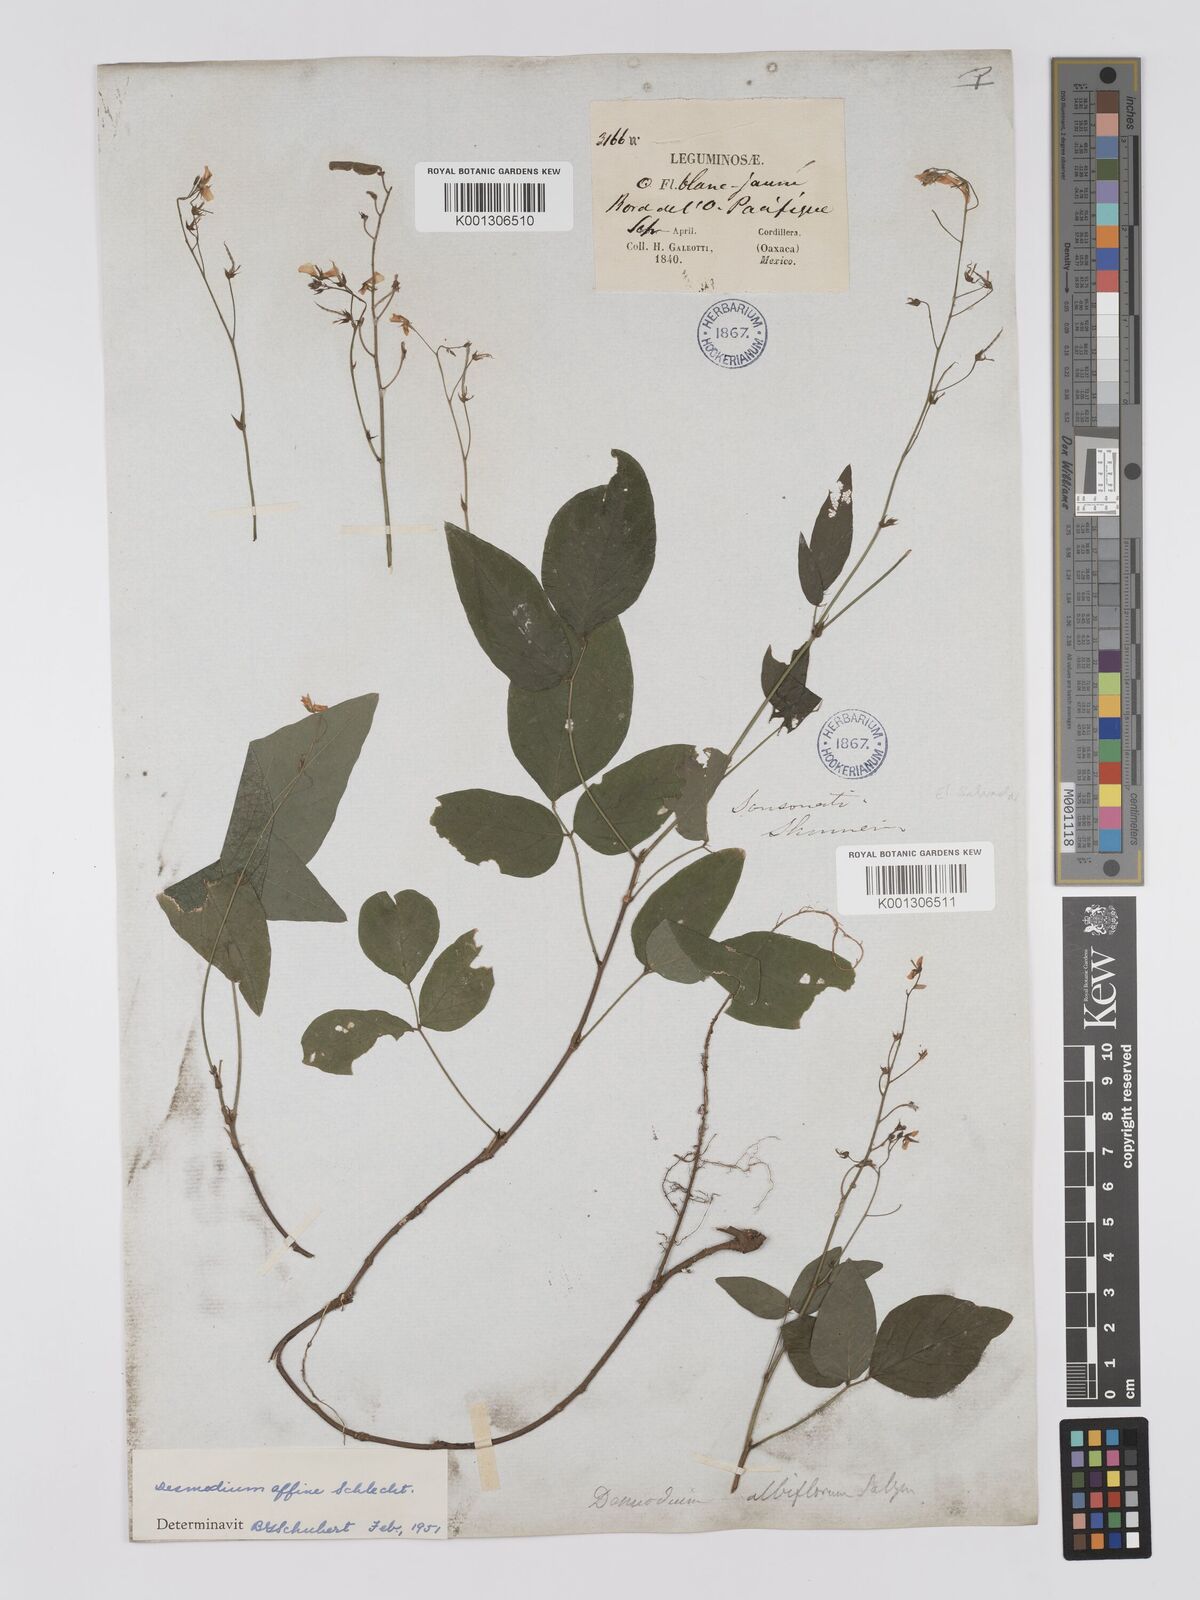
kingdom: Plantae
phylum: Tracheophyta
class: Magnoliopsida
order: Fabales
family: Fabaceae
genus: Desmodium
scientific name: Desmodium affine
